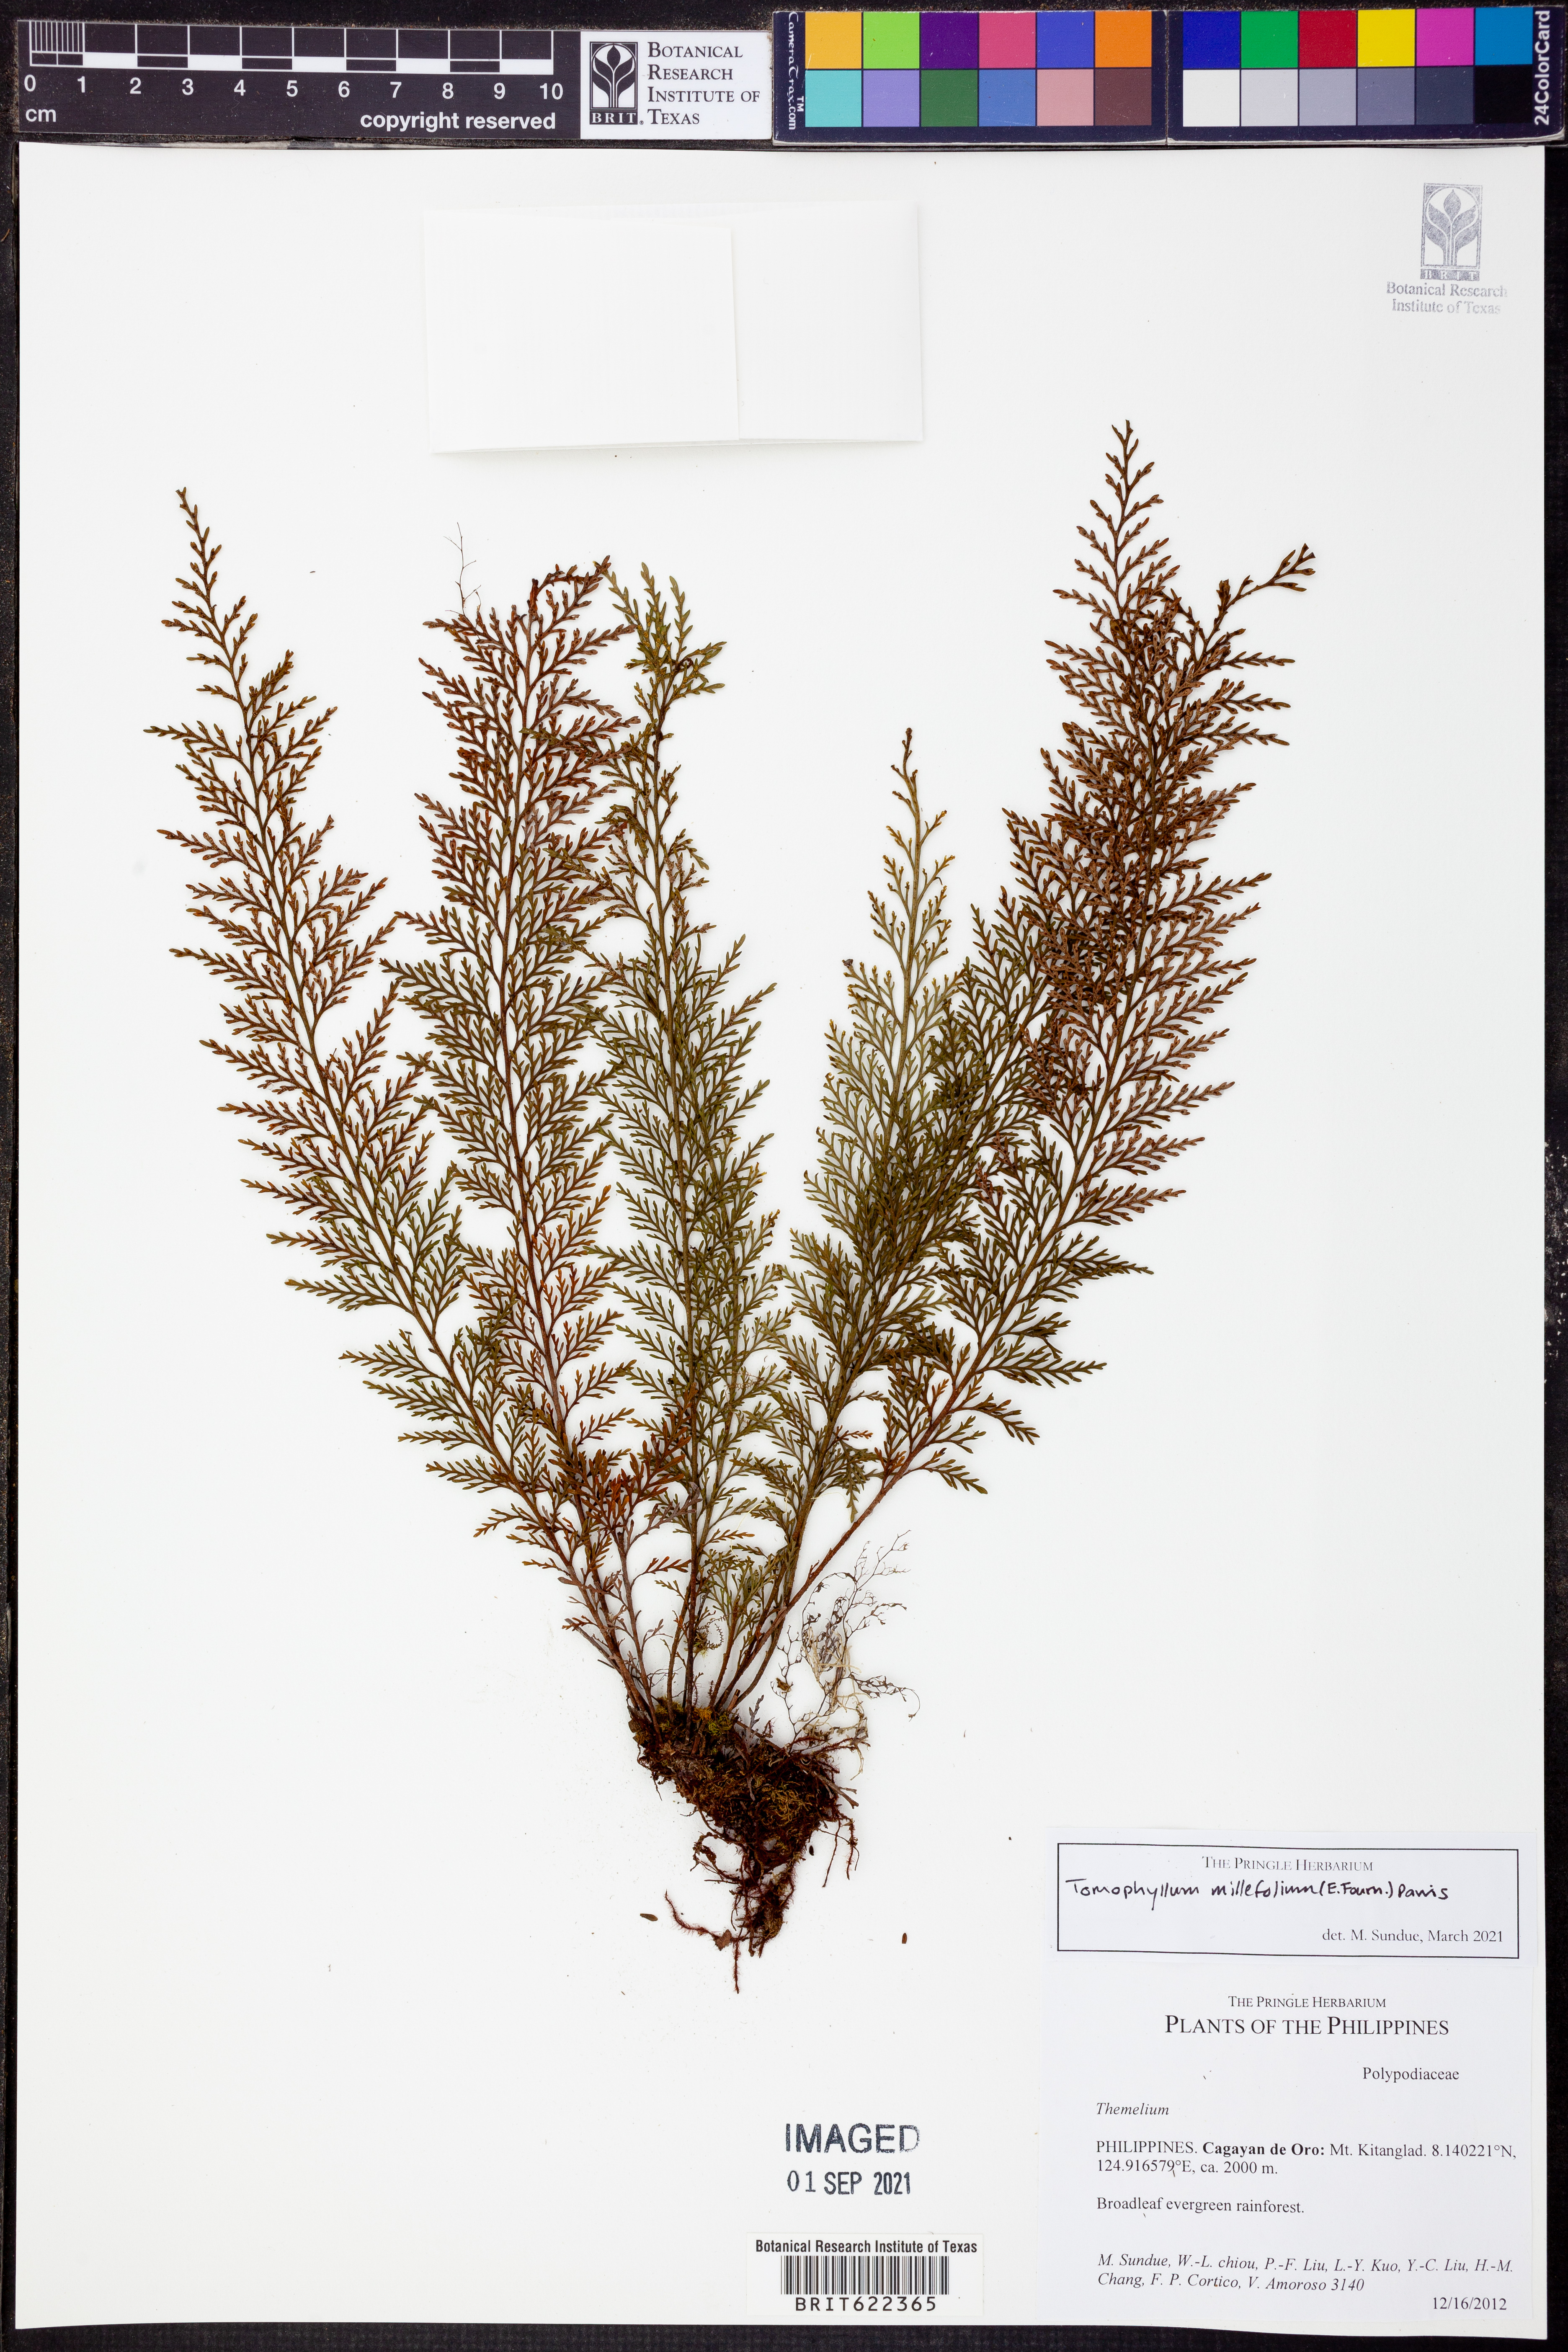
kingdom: Plantae
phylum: Tracheophyta
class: Polypodiopsida
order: Polypodiales
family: Polypodiaceae
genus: Tomophyllum
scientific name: Tomophyllum millefolium
